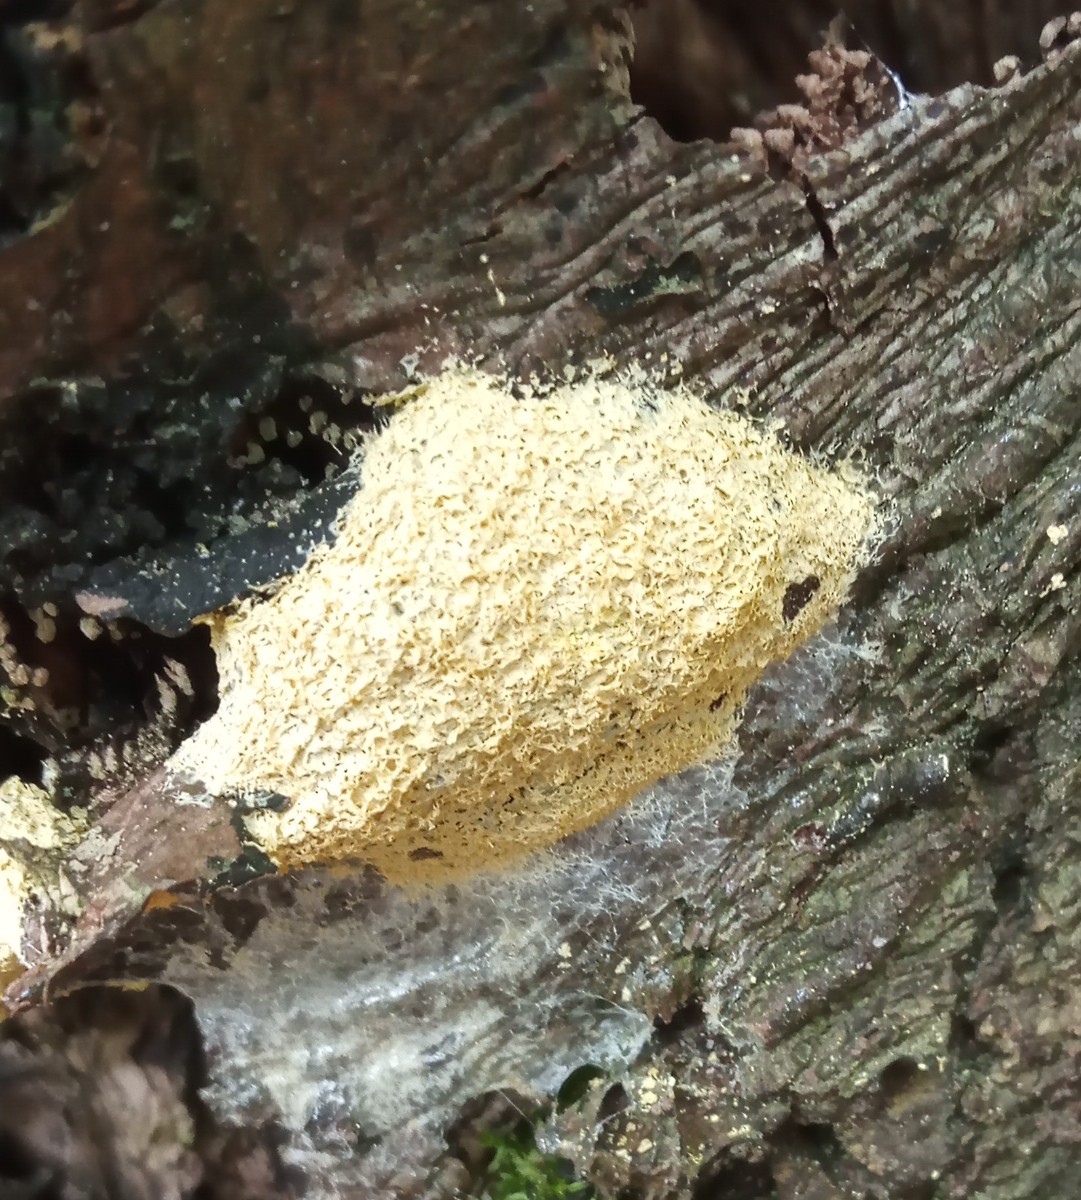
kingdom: Protozoa
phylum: Mycetozoa
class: Myxomycetes
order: Physarales
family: Physaraceae
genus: Fuligo
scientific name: Fuligo septica
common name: gul troldsmør
